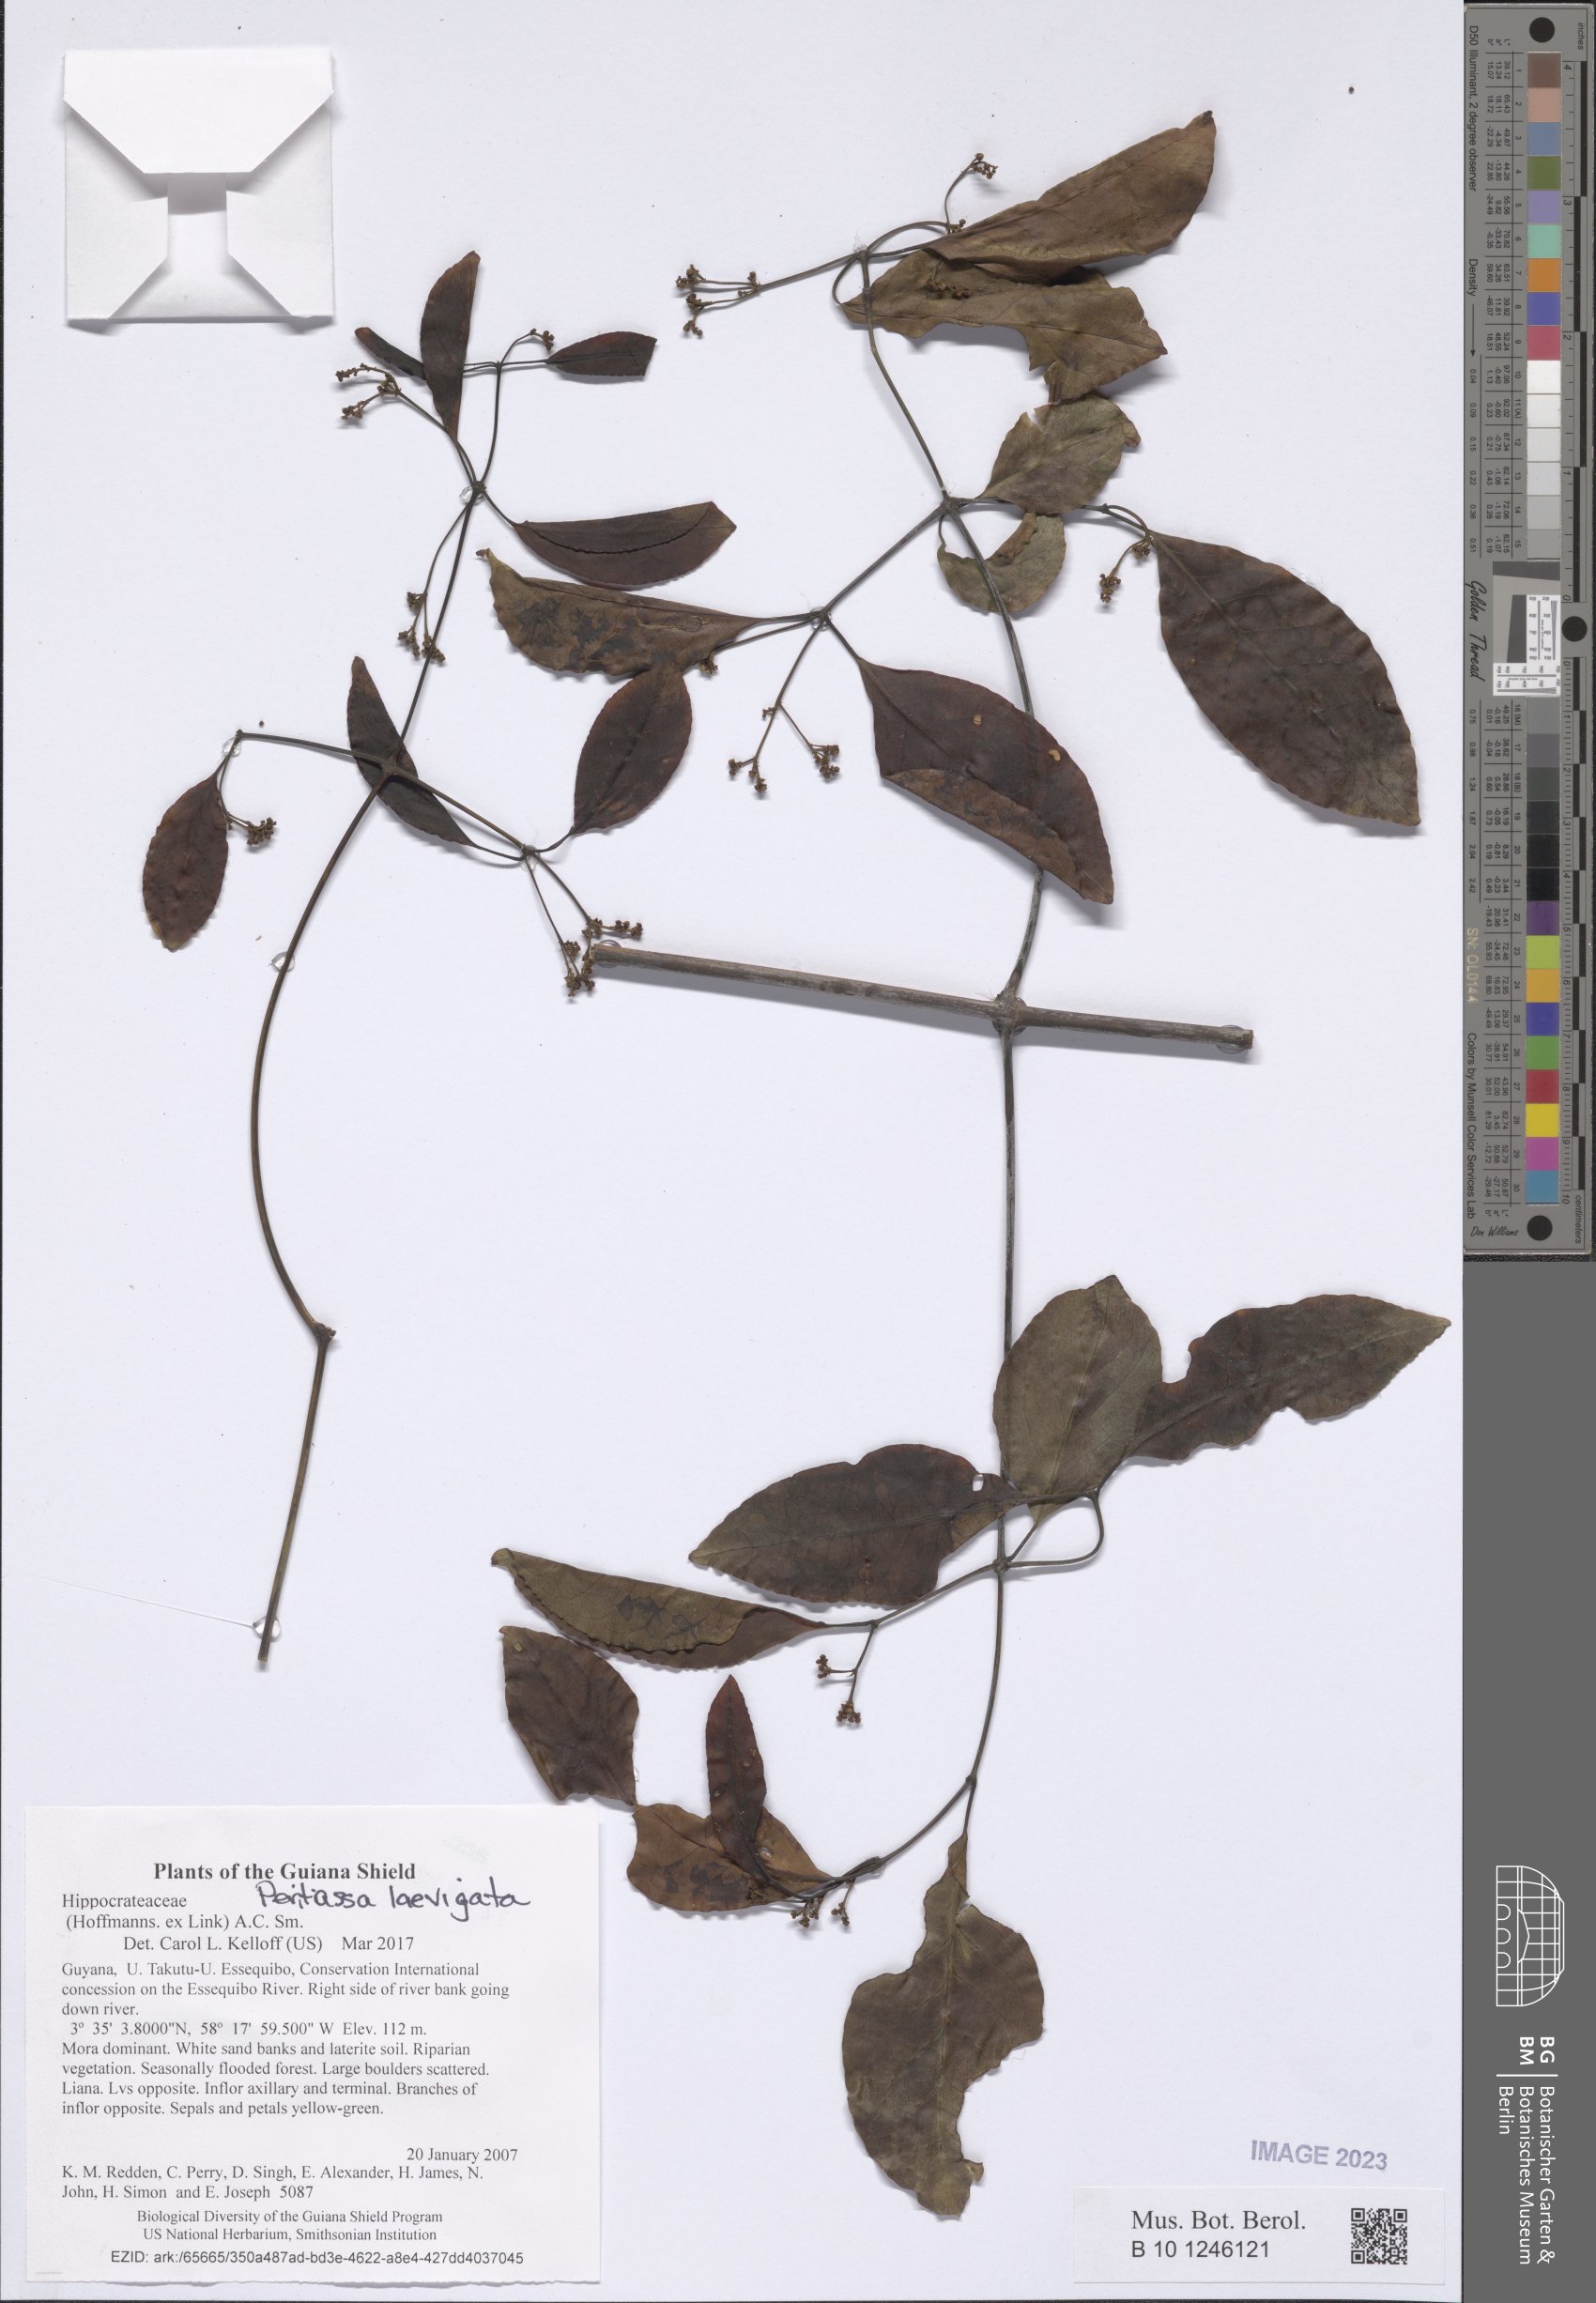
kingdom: Plantae
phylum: Tracheophyta
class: Magnoliopsida
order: Celastrales
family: Celastraceae
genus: Peritassa
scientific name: Peritassa laevigata
